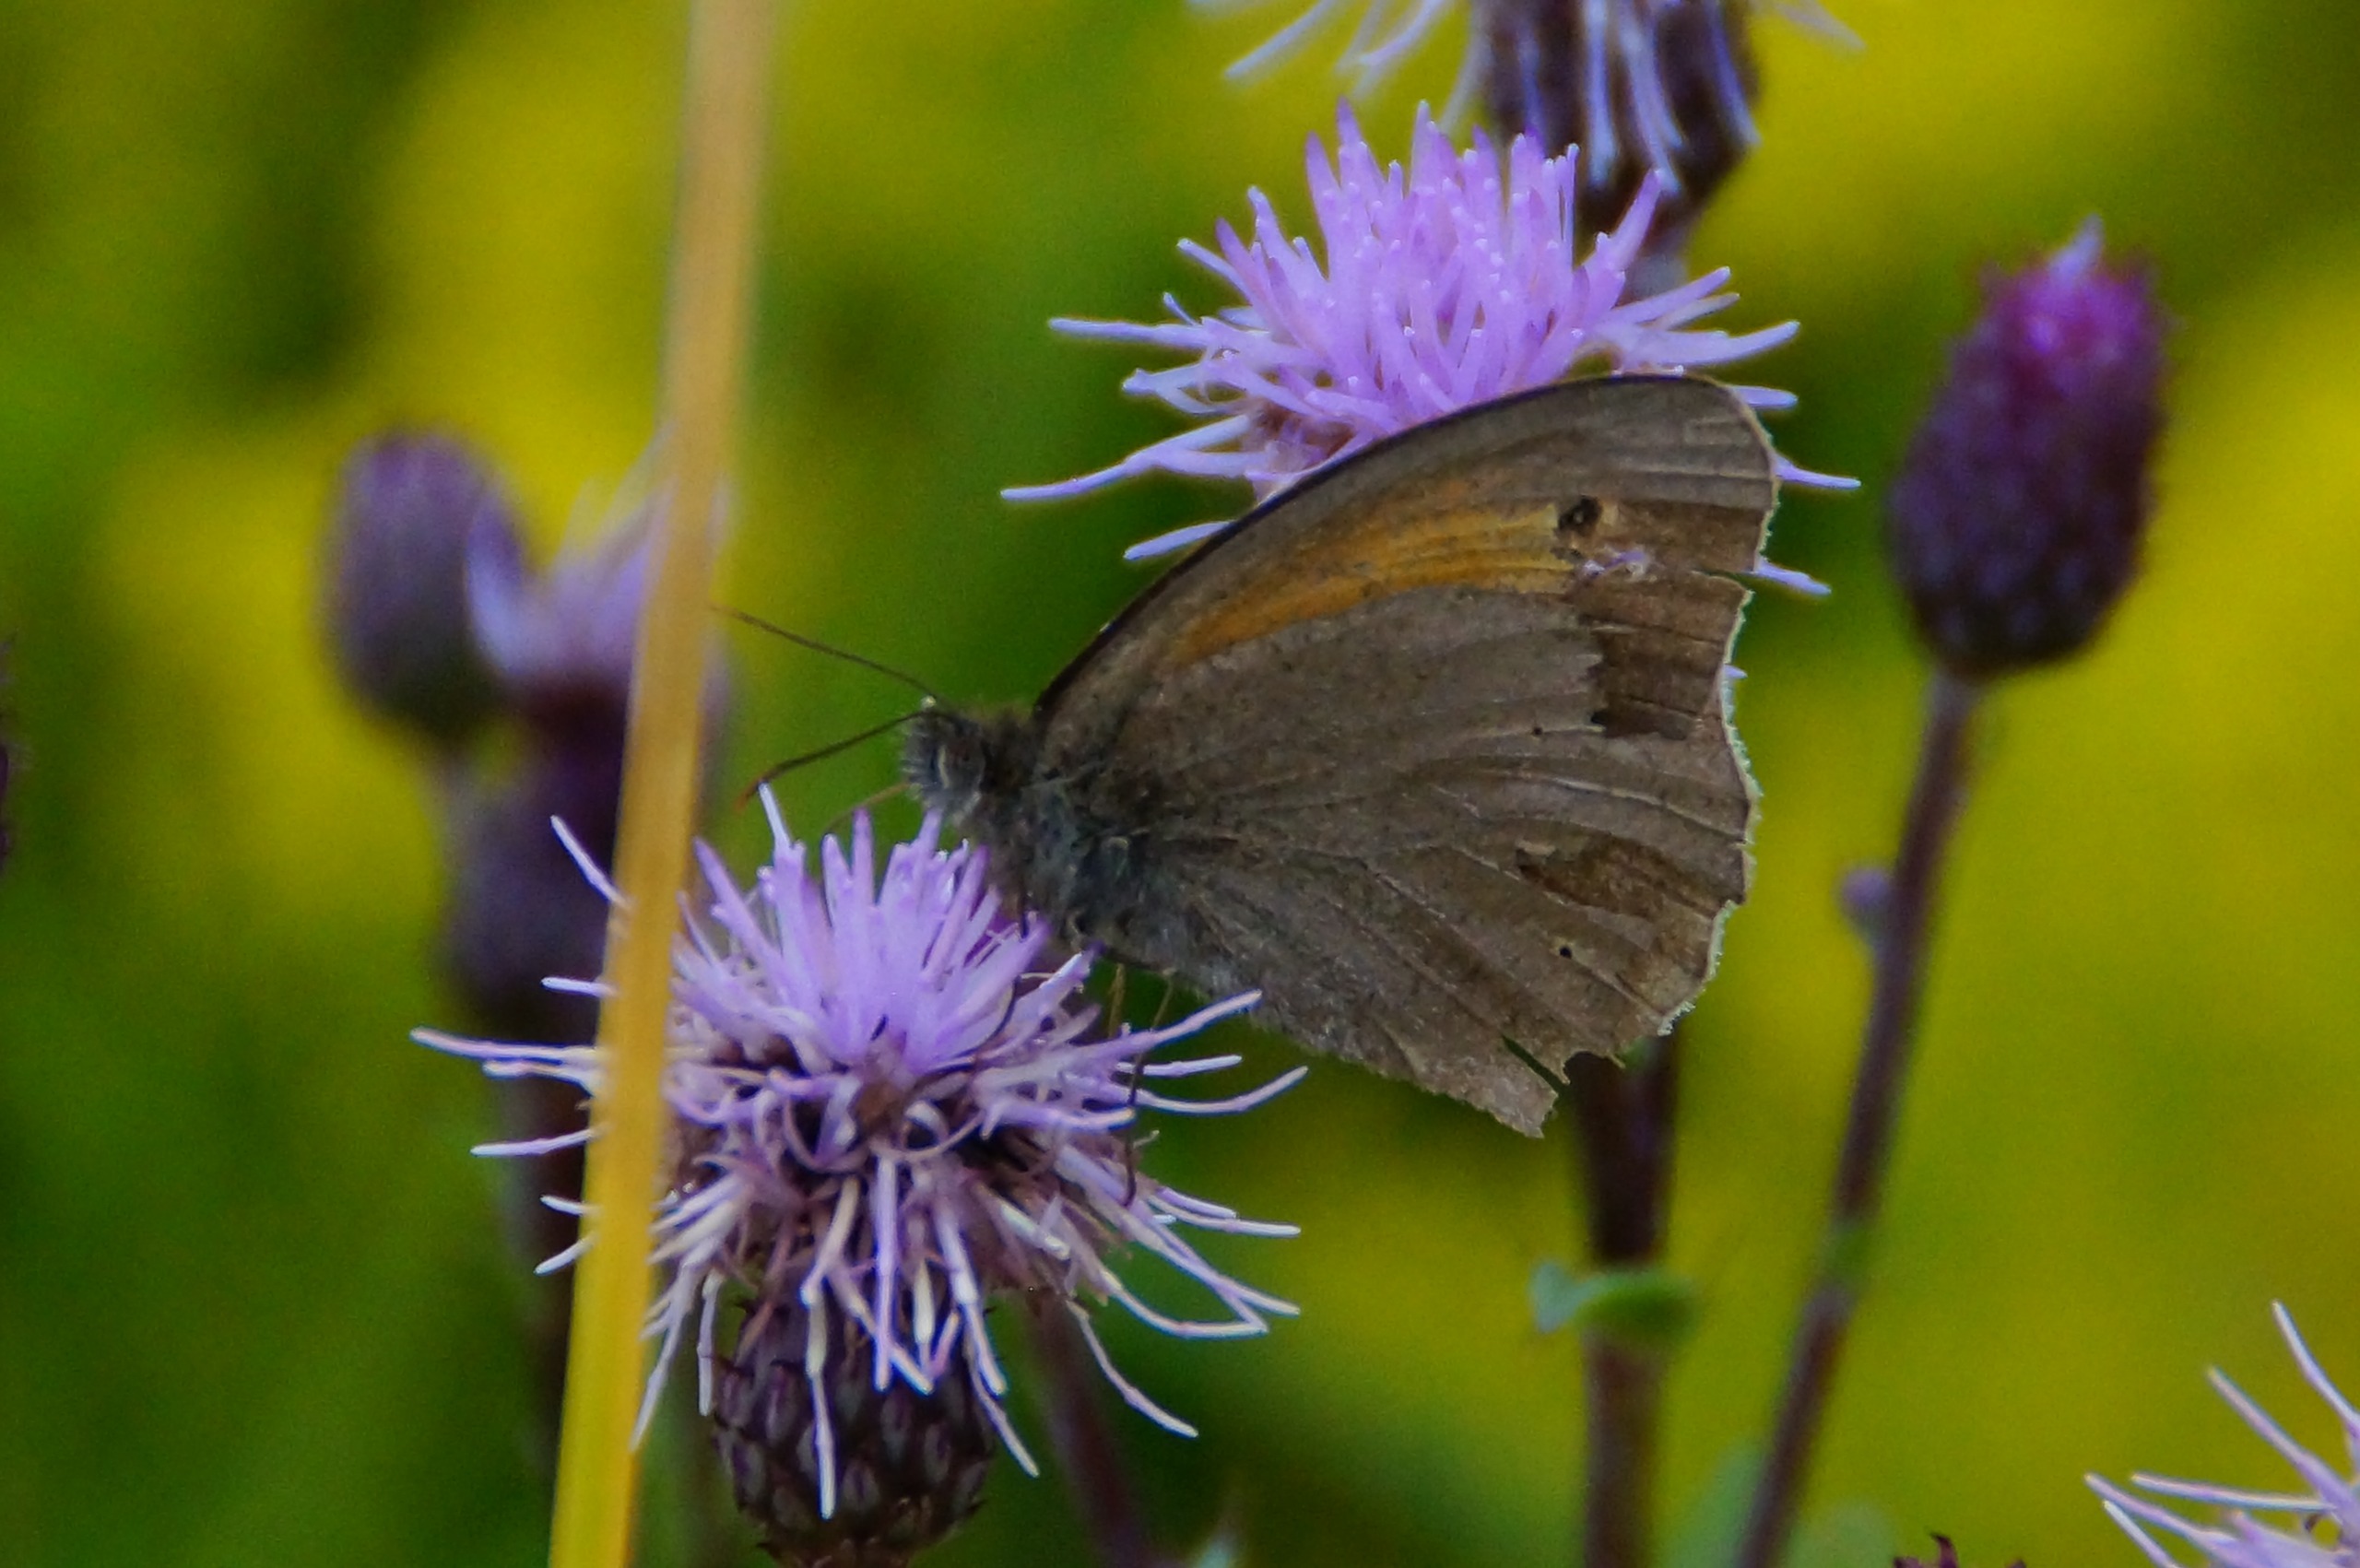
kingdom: Animalia
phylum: Arthropoda
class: Insecta
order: Lepidoptera
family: Nymphalidae
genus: Maniola
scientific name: Maniola jurtina
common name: Græsrandøje
